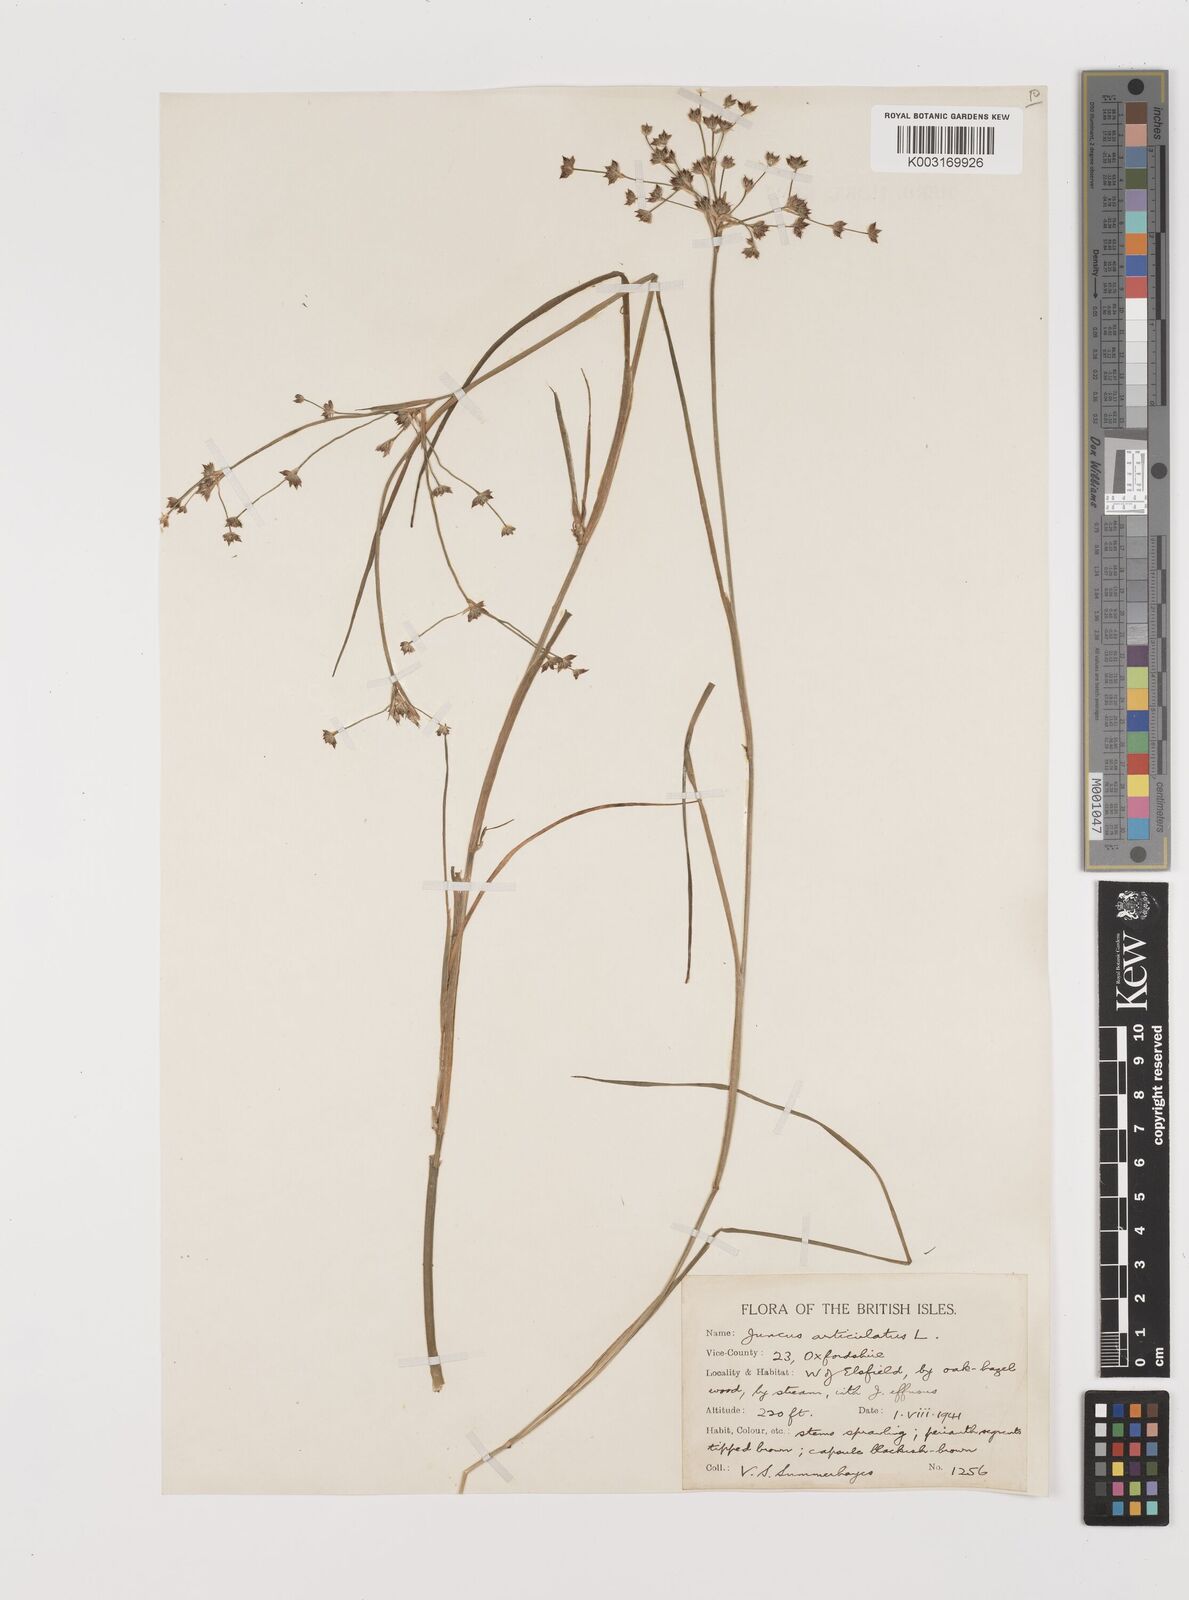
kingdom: Plantae
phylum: Tracheophyta
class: Liliopsida
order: Poales
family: Juncaceae
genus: Juncus
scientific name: Juncus articulatus
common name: Jointed rush
